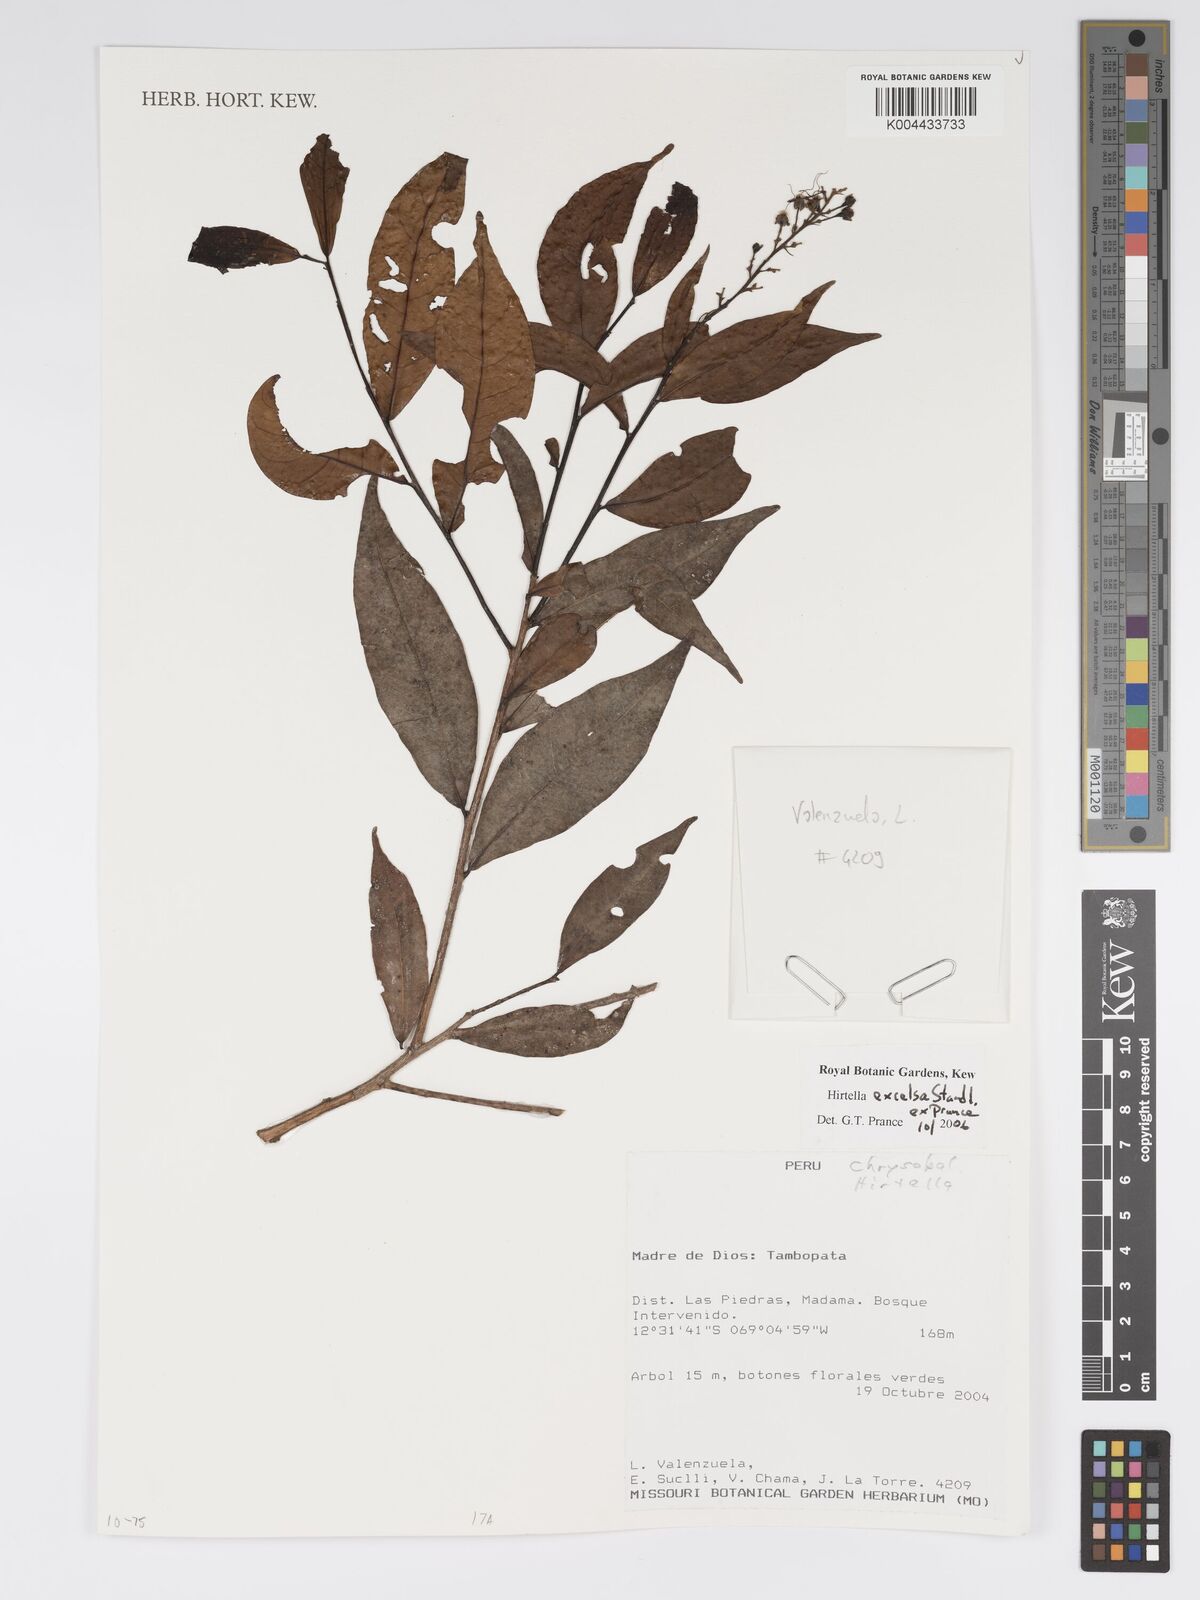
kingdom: Plantae
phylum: Tracheophyta
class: Magnoliopsida
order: Malpighiales
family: Chrysobalanaceae
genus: Hirtella
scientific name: Hirtella excelsa
